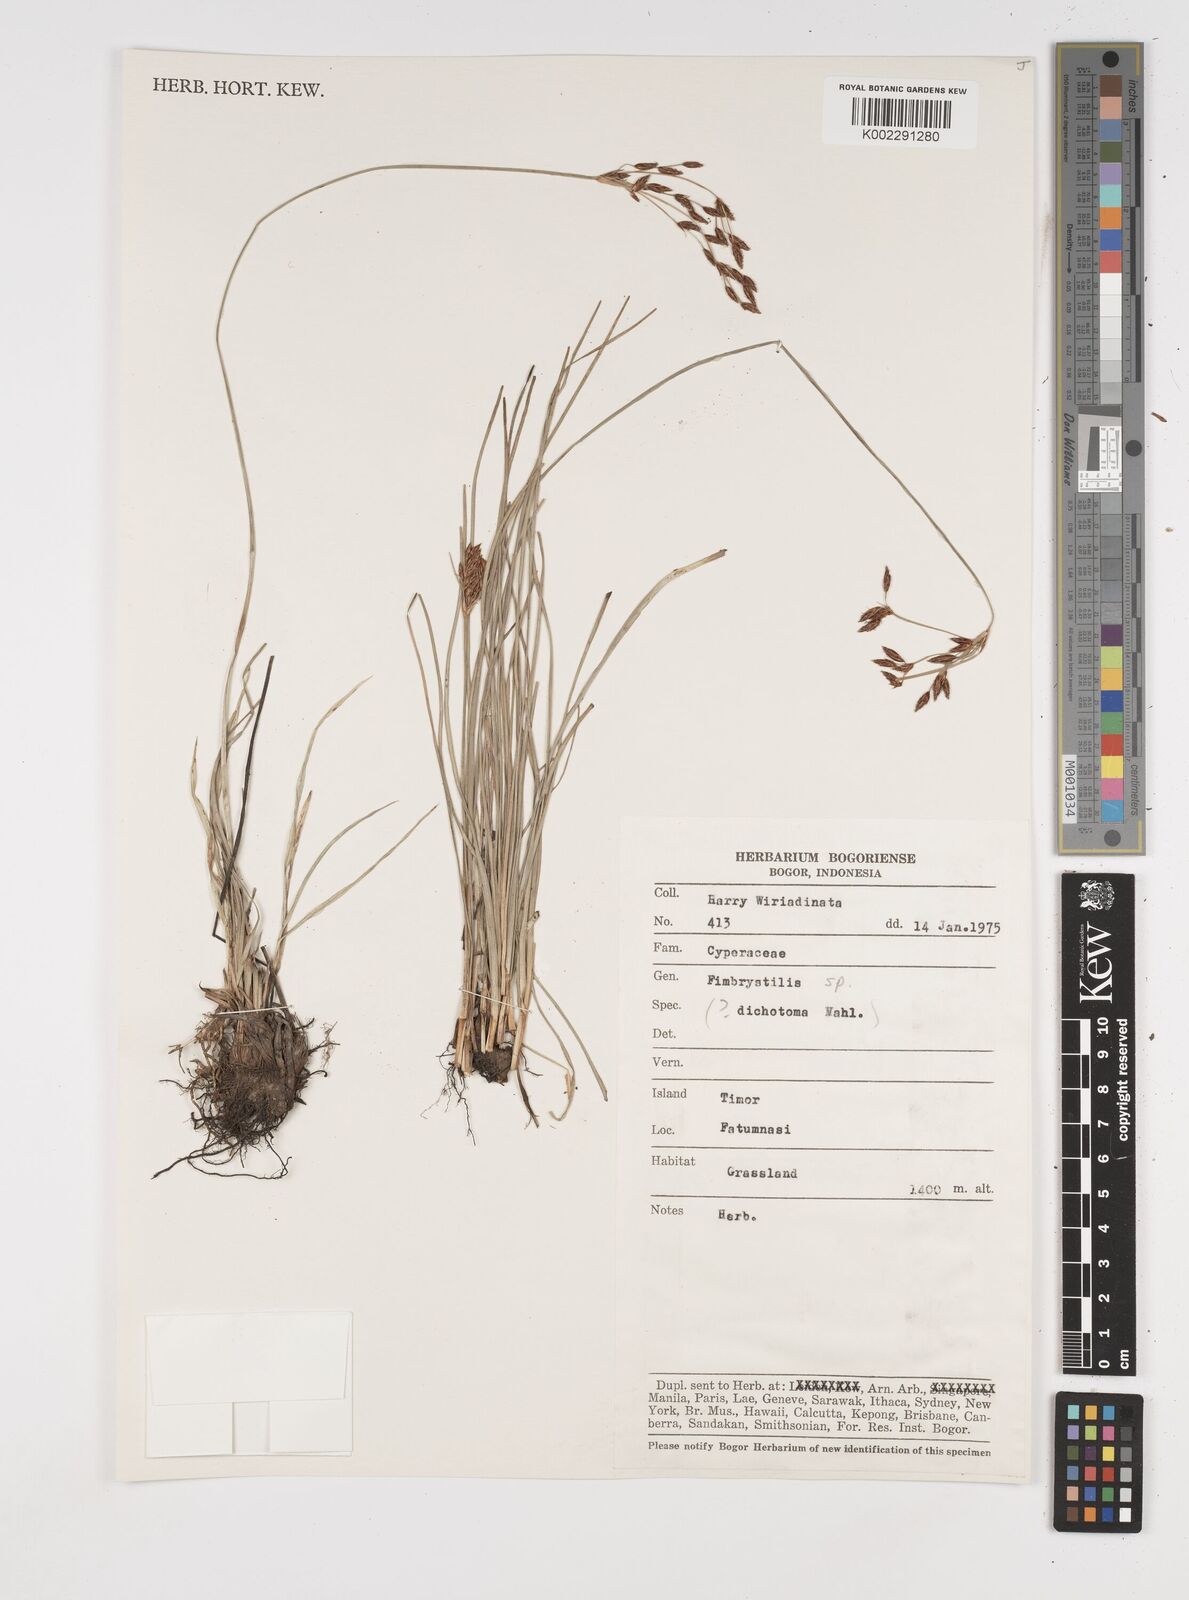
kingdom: Plantae
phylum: Tracheophyta
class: Liliopsida
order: Poales
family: Cyperaceae
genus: Fimbristylis
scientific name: Fimbristylis
